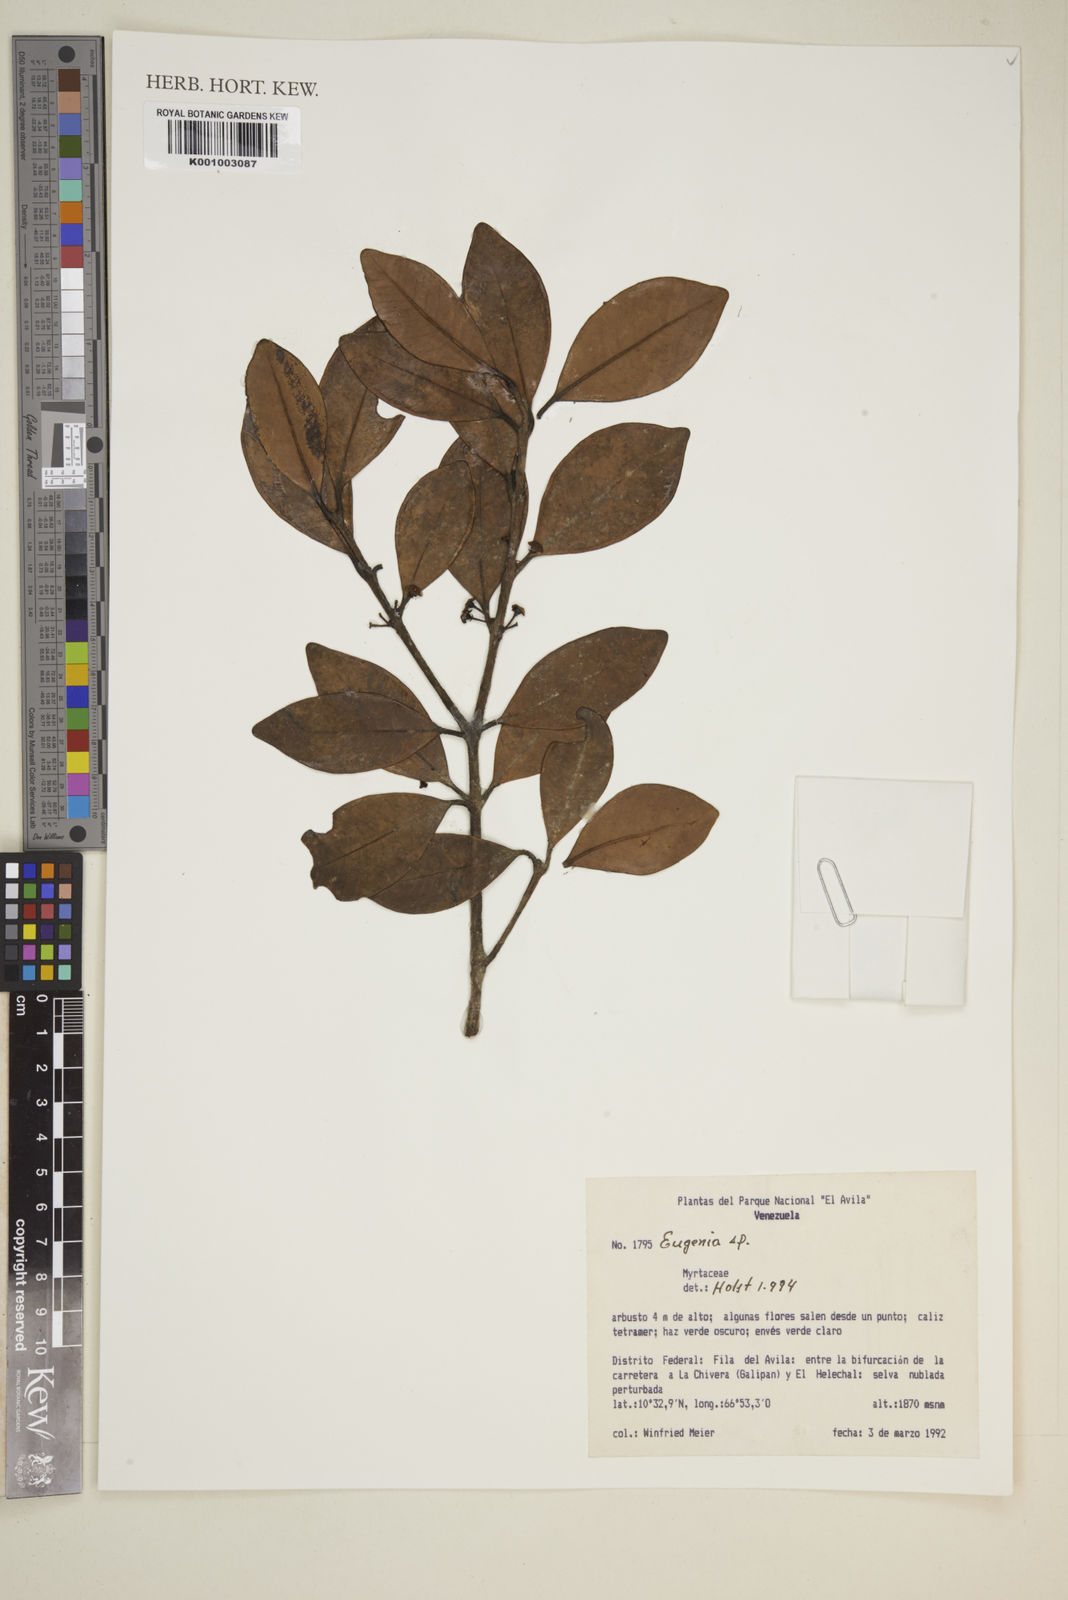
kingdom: Plantae
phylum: Tracheophyta
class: Magnoliopsida
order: Myrtales
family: Myrtaceae
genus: Eugenia
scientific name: Eugenia
